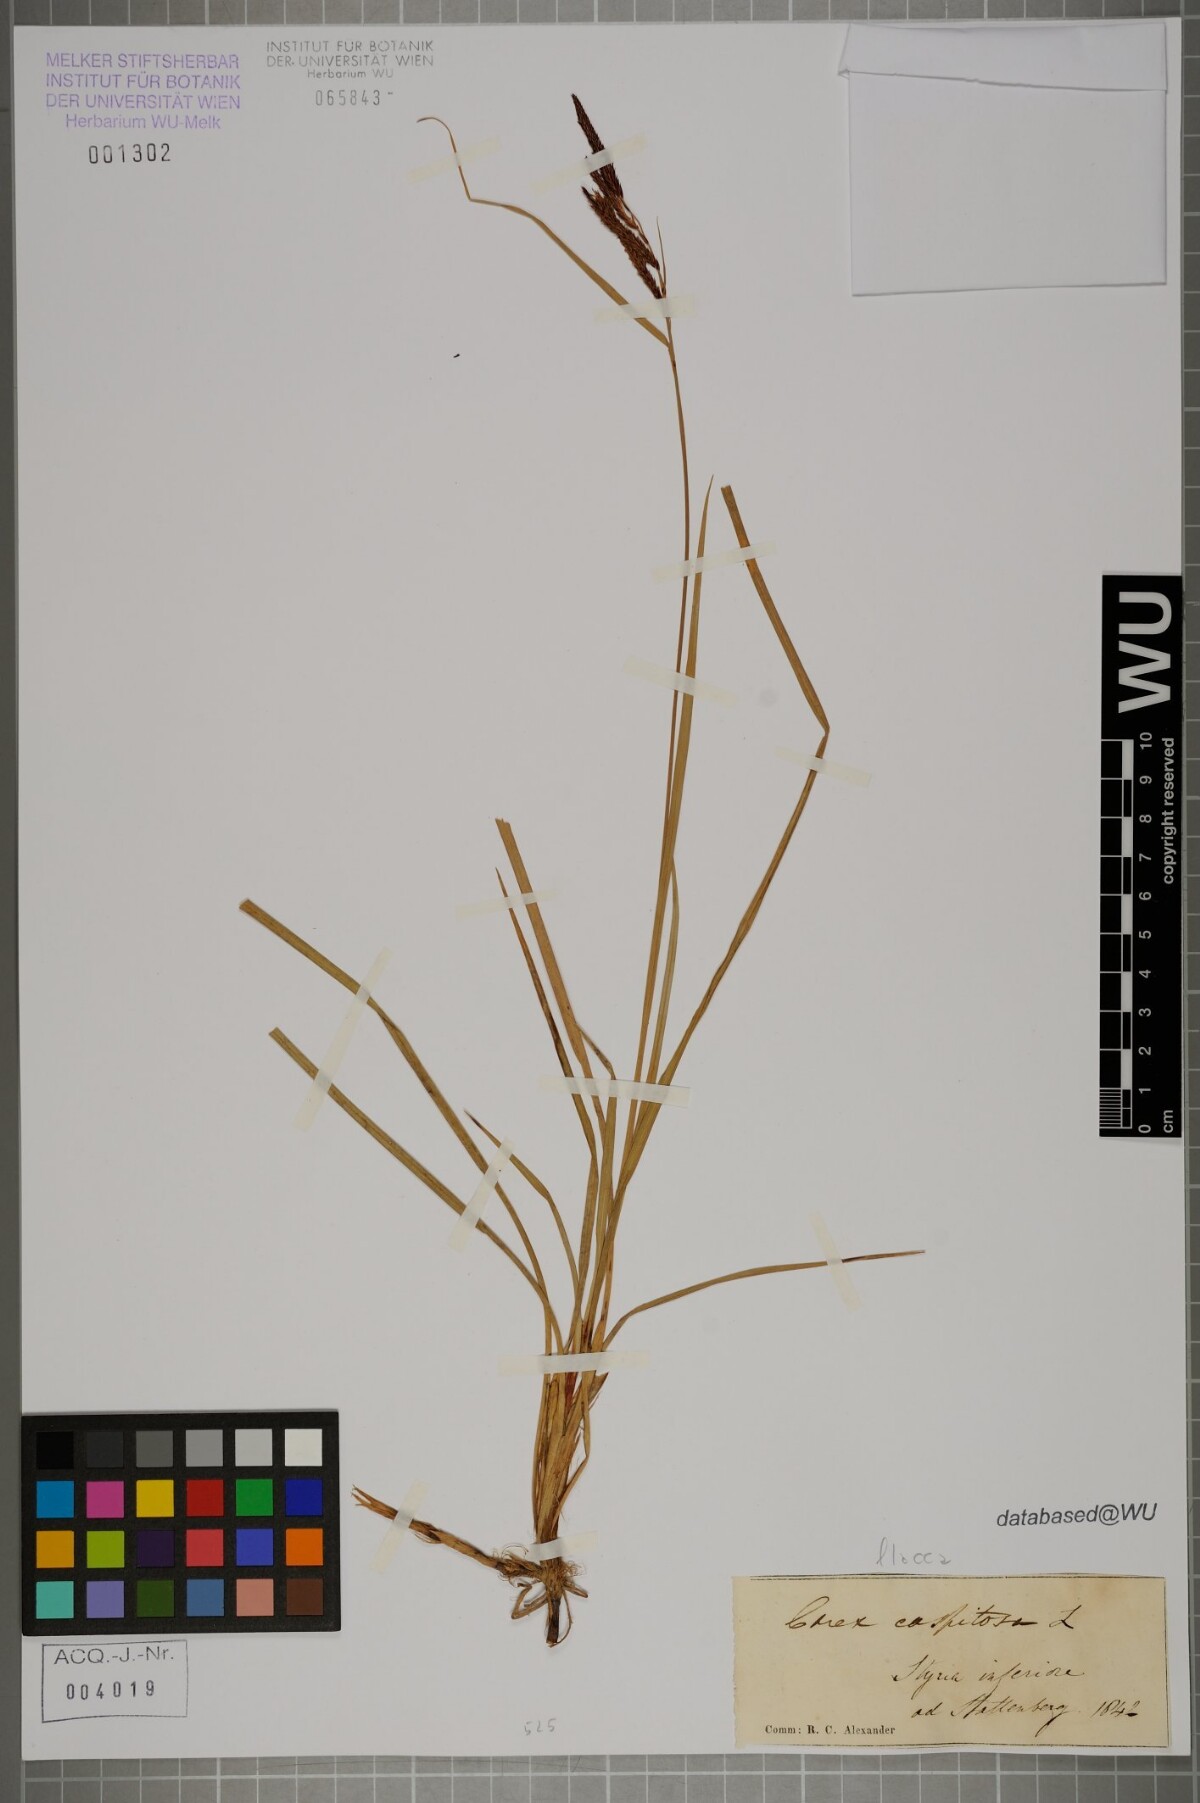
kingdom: Plantae
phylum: Tracheophyta
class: Liliopsida
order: Poales
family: Cyperaceae
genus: Carex
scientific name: Carex flacca
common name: Glaucous sedge
